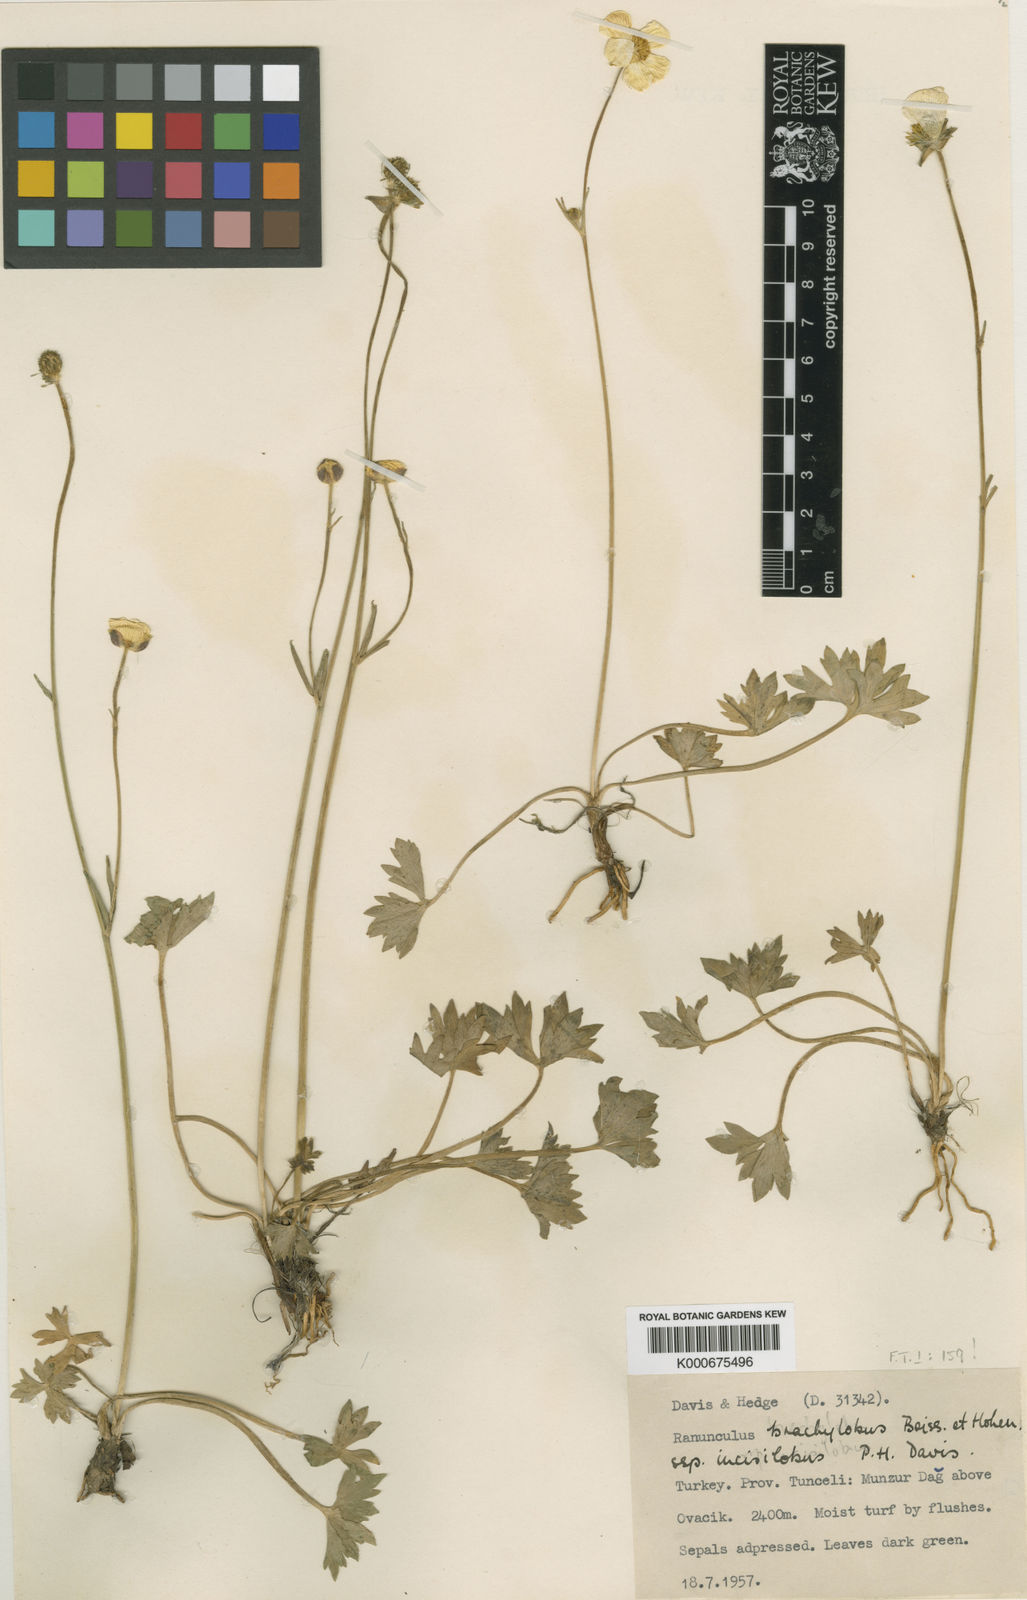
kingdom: Plantae
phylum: Tracheophyta
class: Magnoliopsida
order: Ranunculales
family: Ranunculaceae
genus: Ranunculus
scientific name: Ranunculus brachylobus
